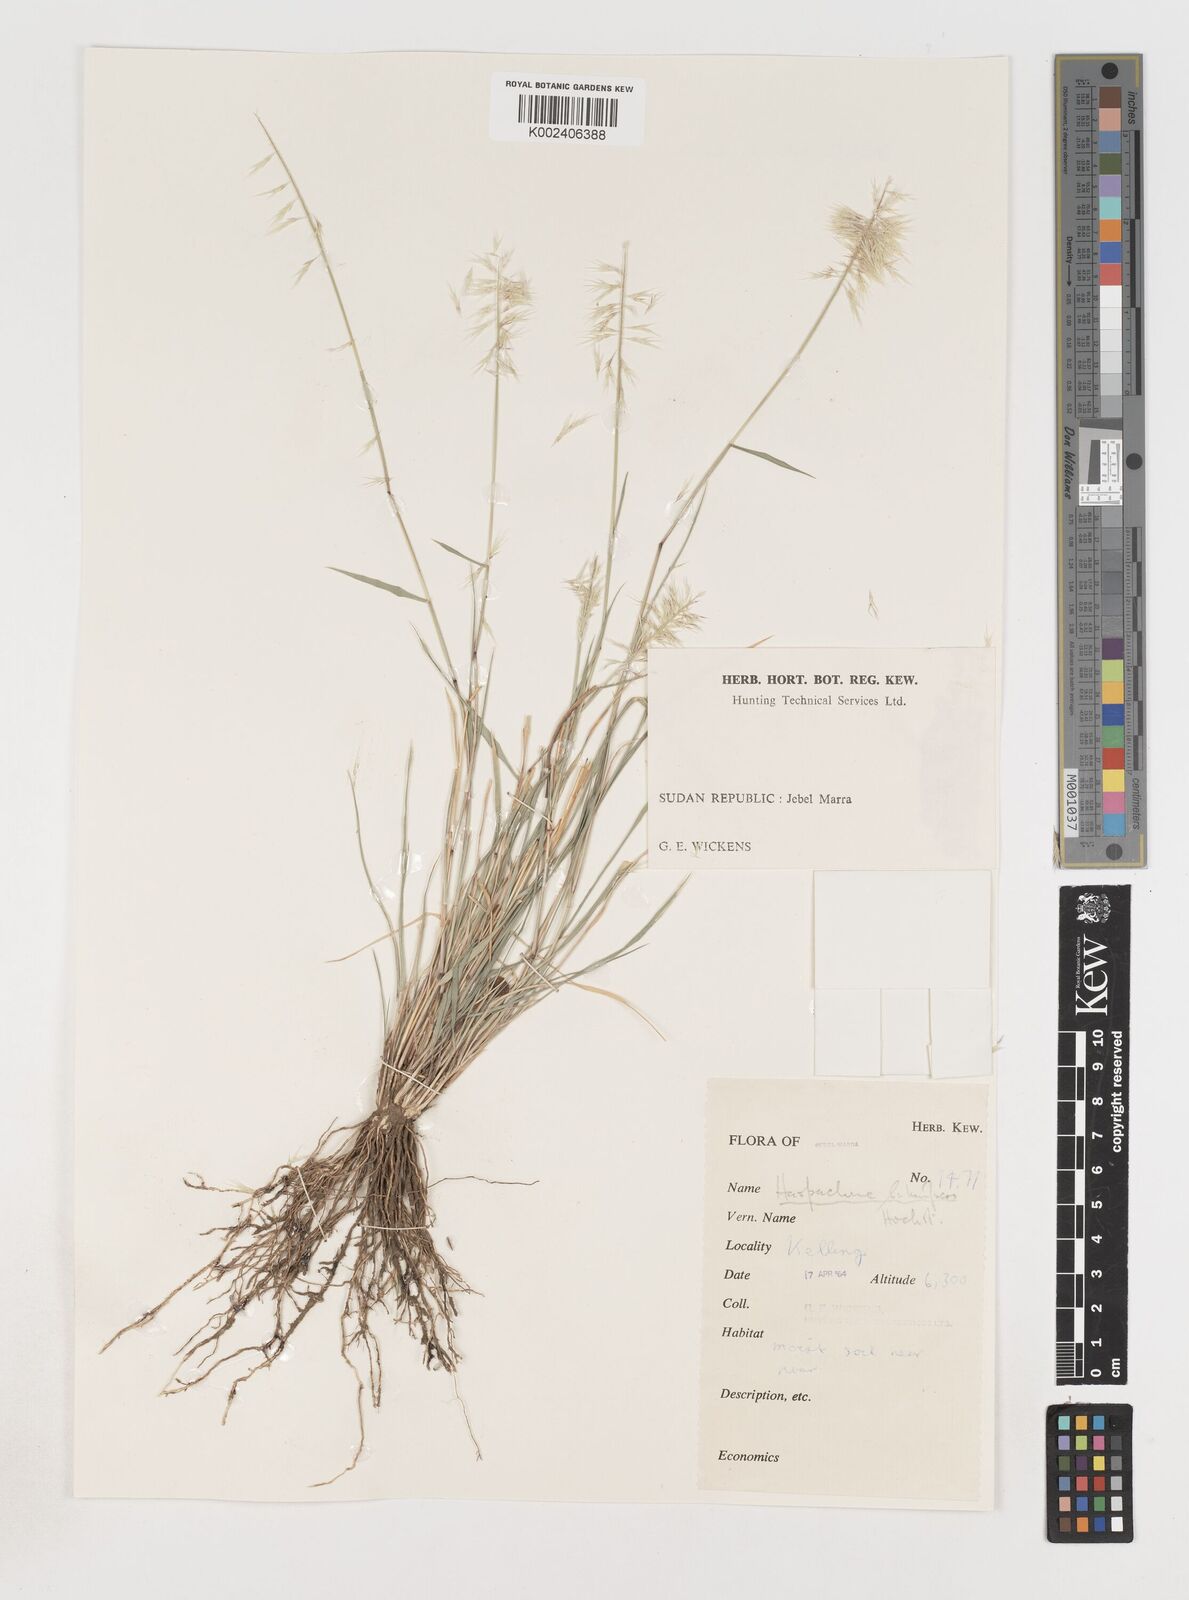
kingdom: Plantae
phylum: Tracheophyta
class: Liliopsida
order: Poales
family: Poaceae
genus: Harpachne
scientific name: Harpachne schimperi
